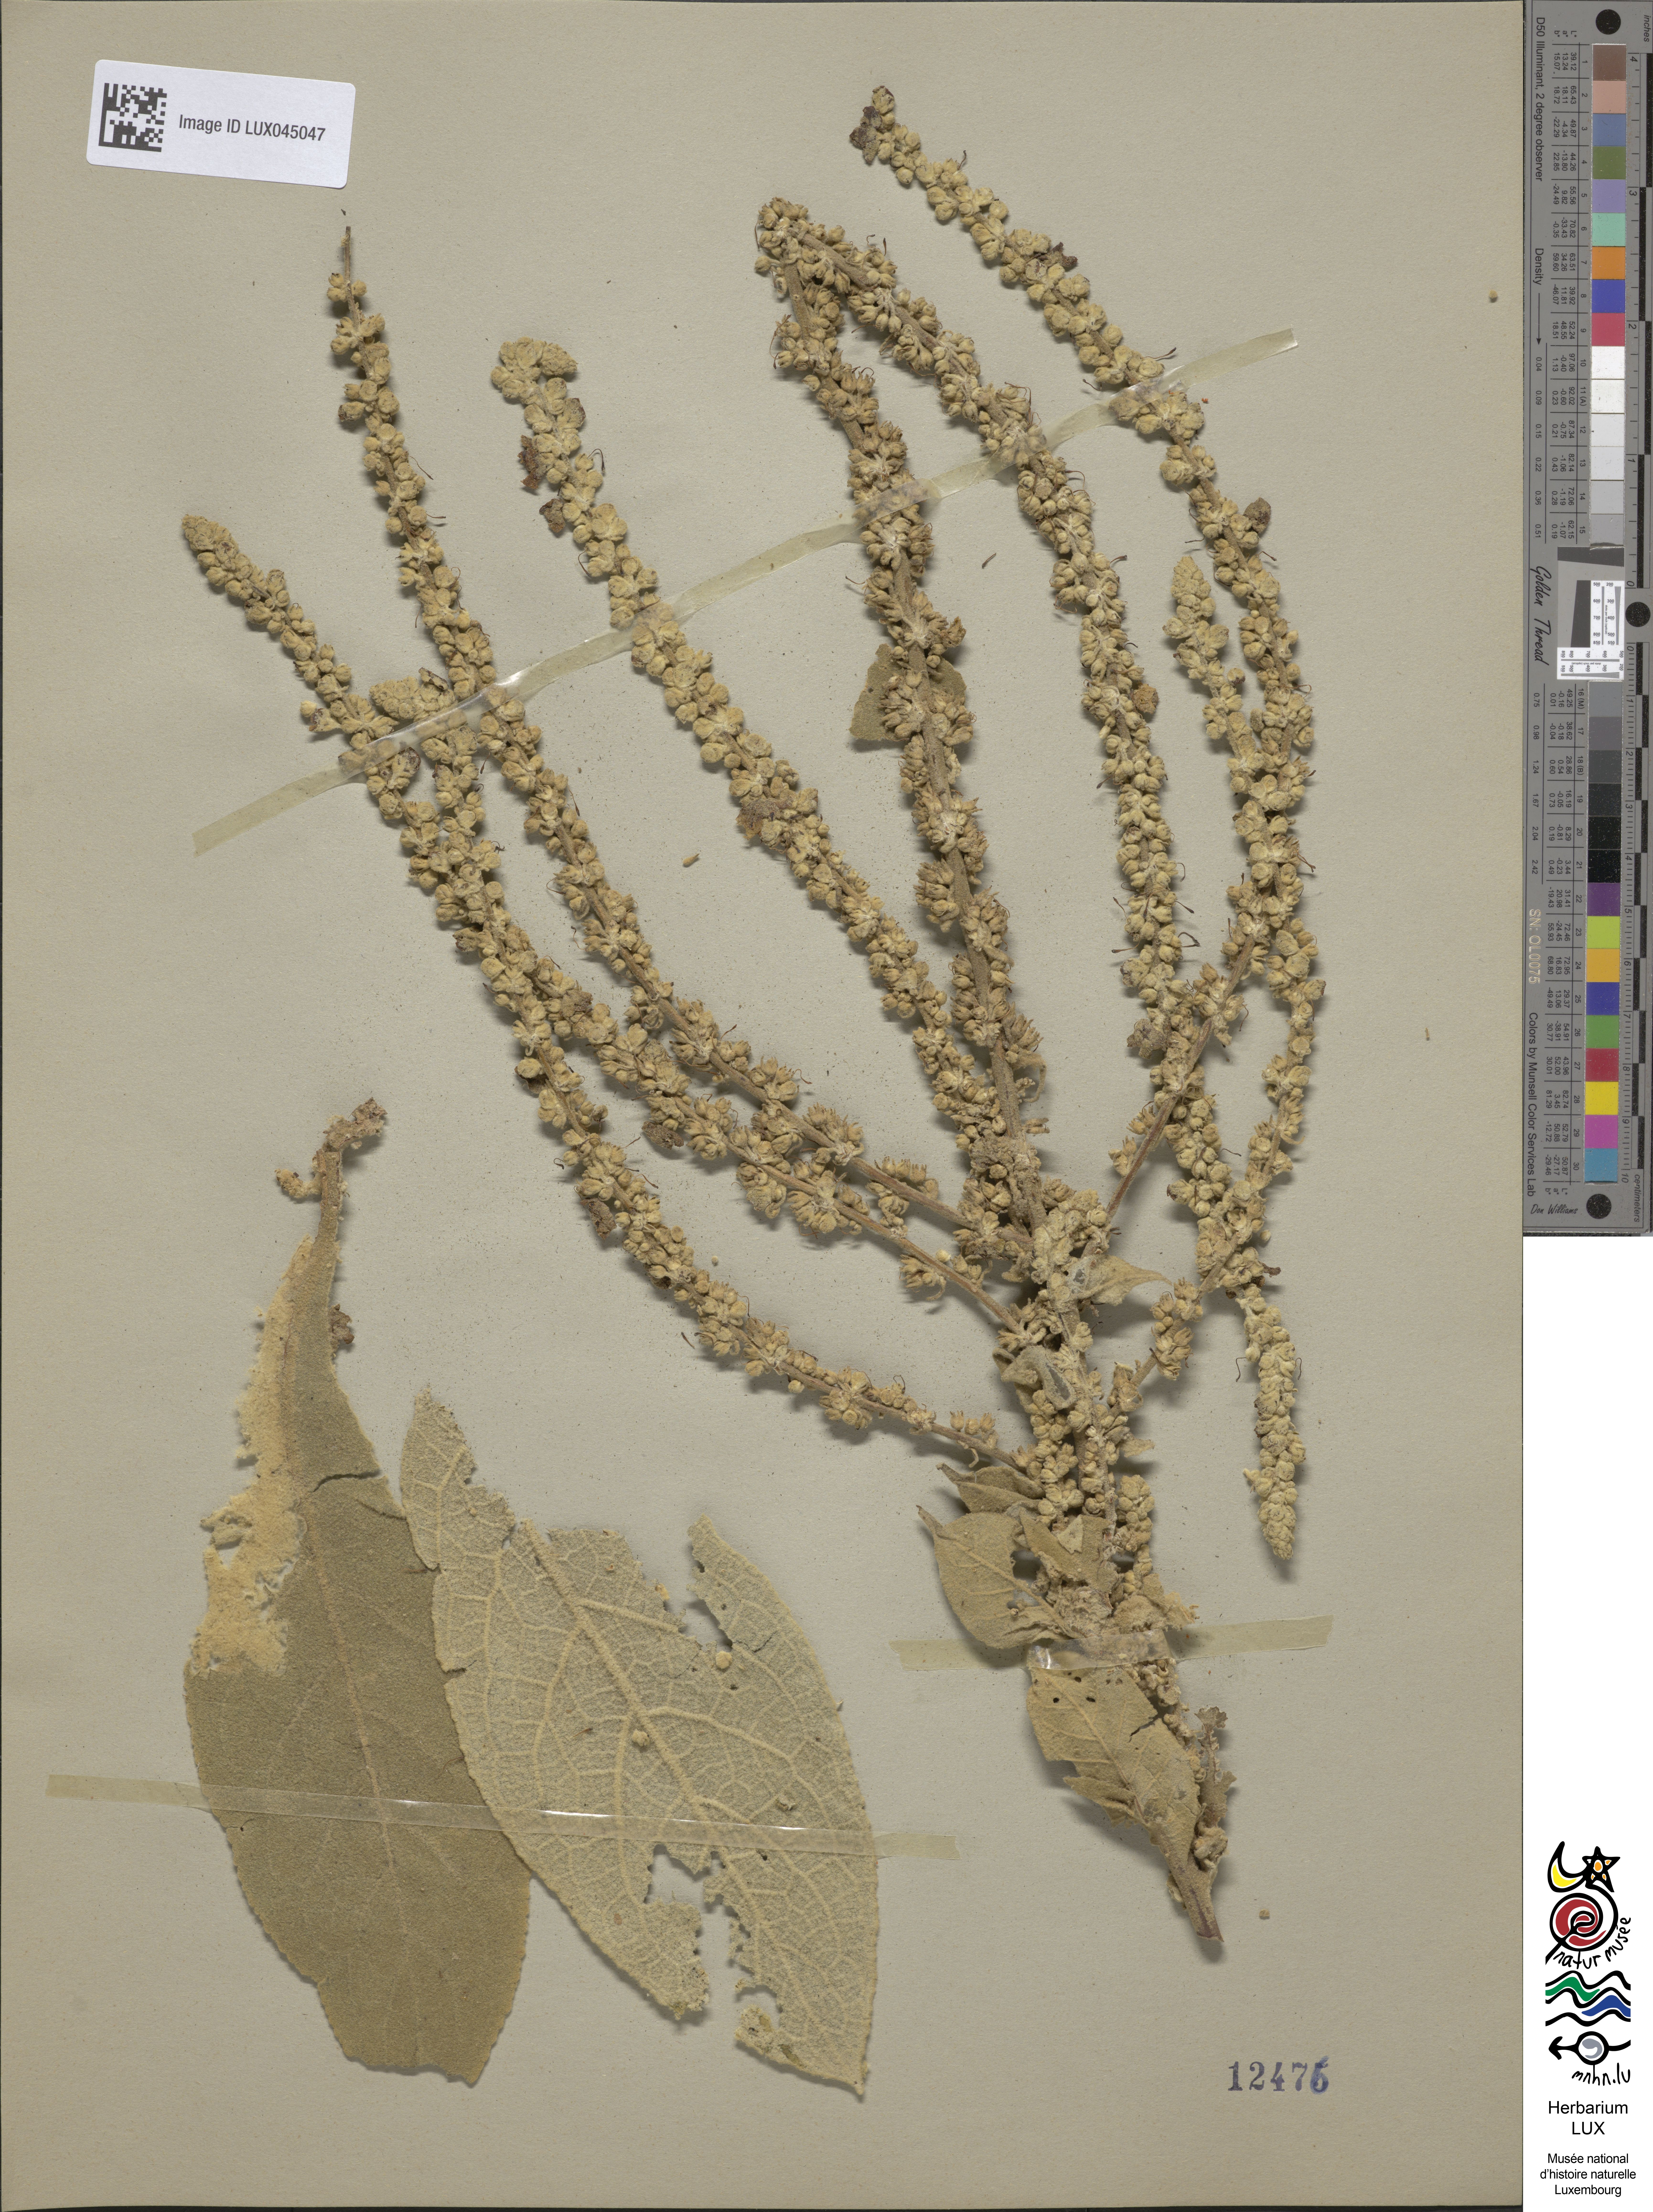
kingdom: Plantae
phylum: Tracheophyta
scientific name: Tracheophyta
